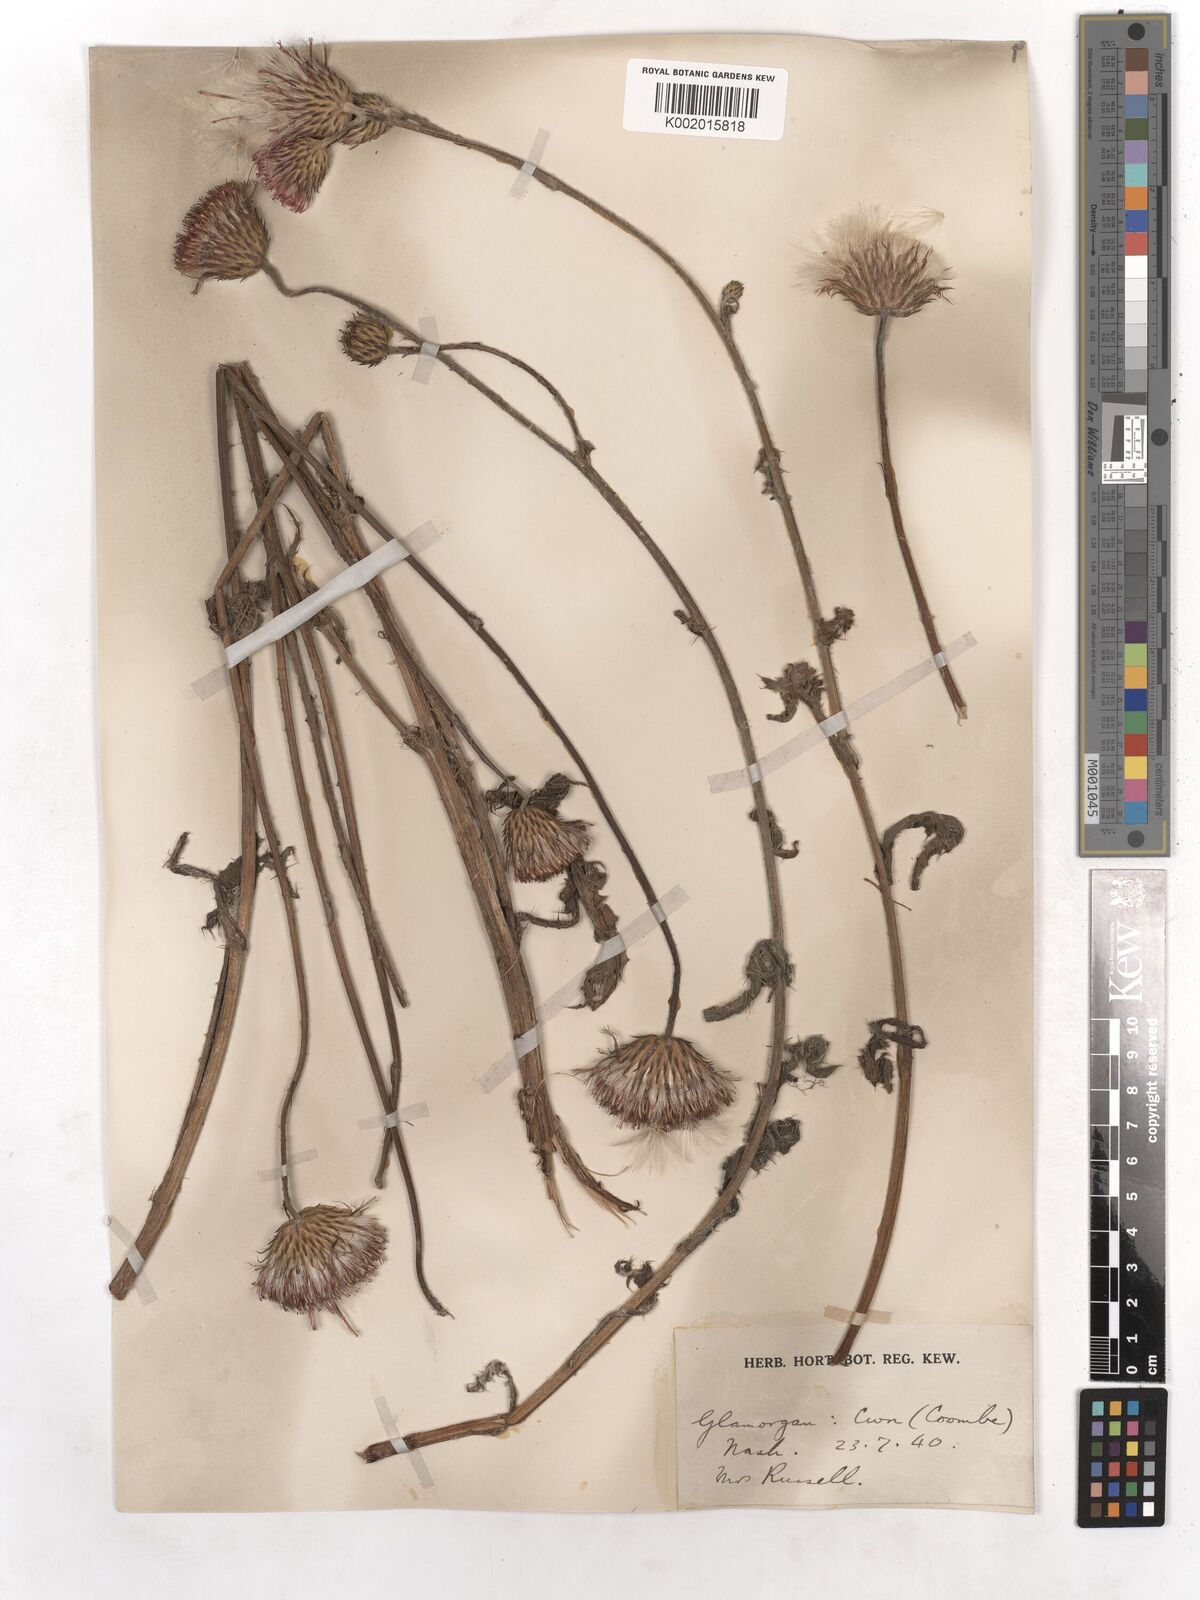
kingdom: Plantae
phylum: Tracheophyta
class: Magnoliopsida
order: Asterales
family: Asteraceae
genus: Cirsium
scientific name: Cirsium tuberosum
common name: Tuberous thistle
